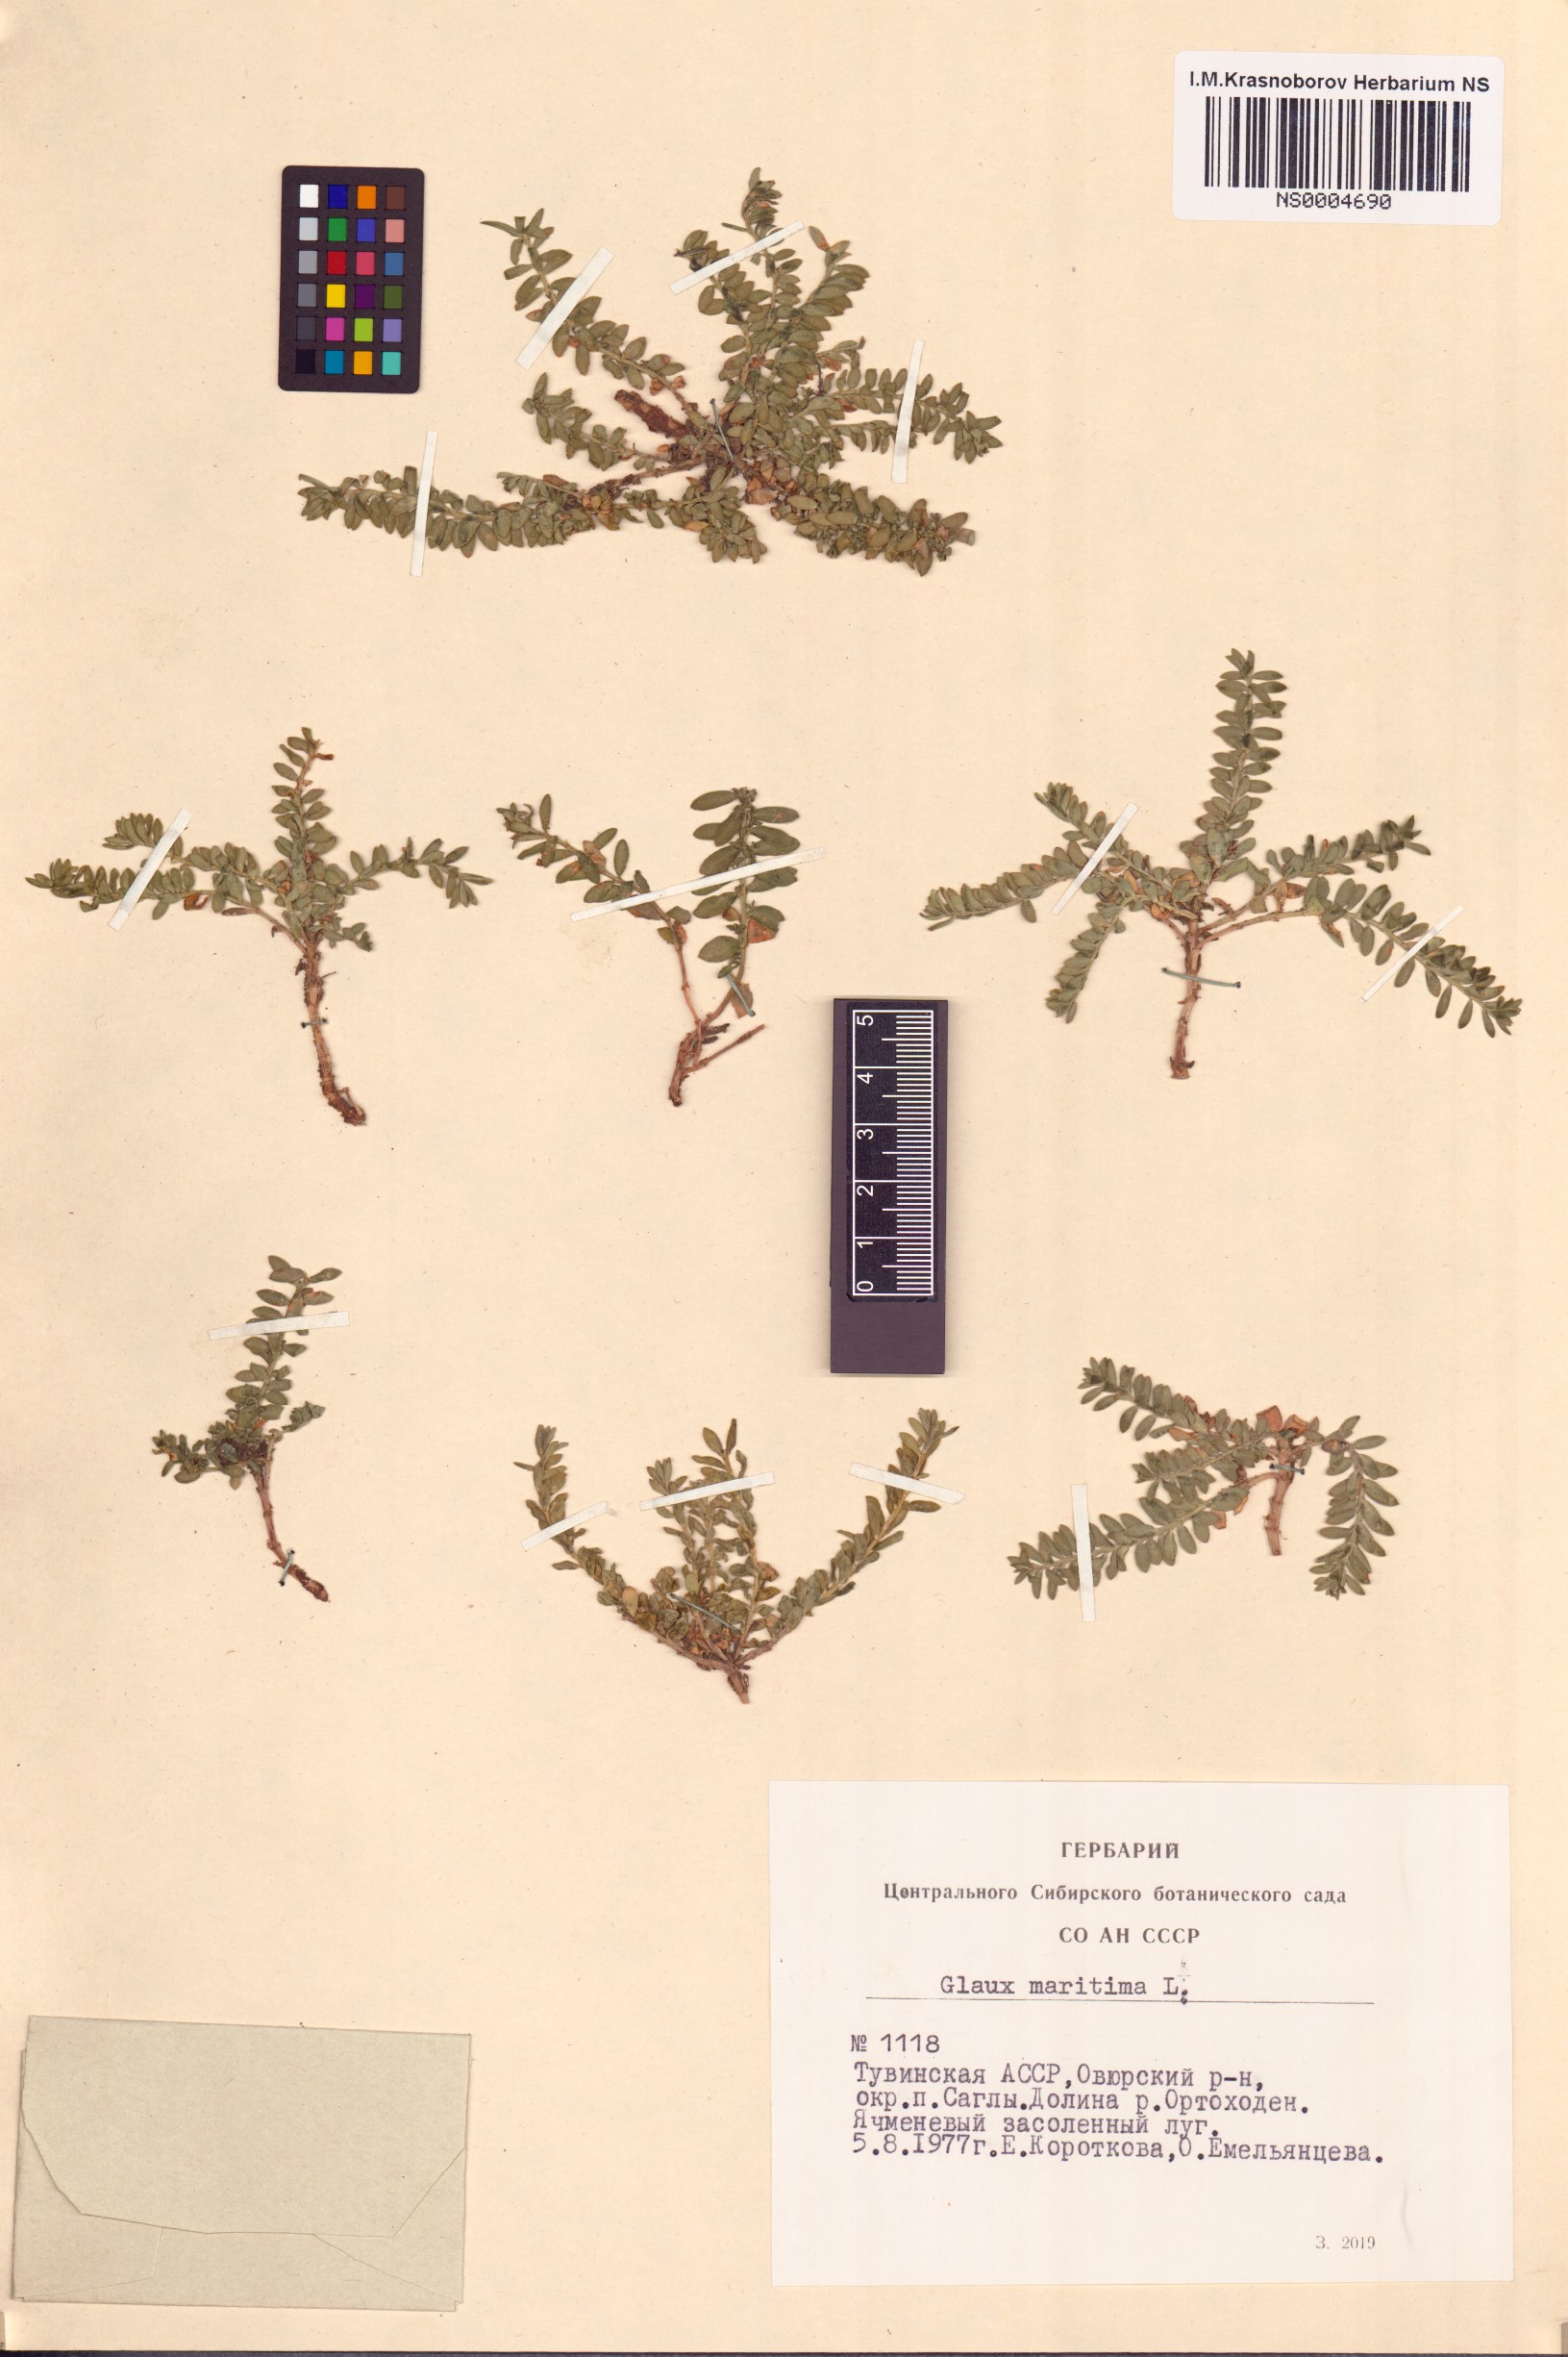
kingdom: Plantae
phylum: Tracheophyta
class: Magnoliopsida
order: Ericales
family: Primulaceae
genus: Lysimachia
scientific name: Lysimachia maritima
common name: Sea milkwort
